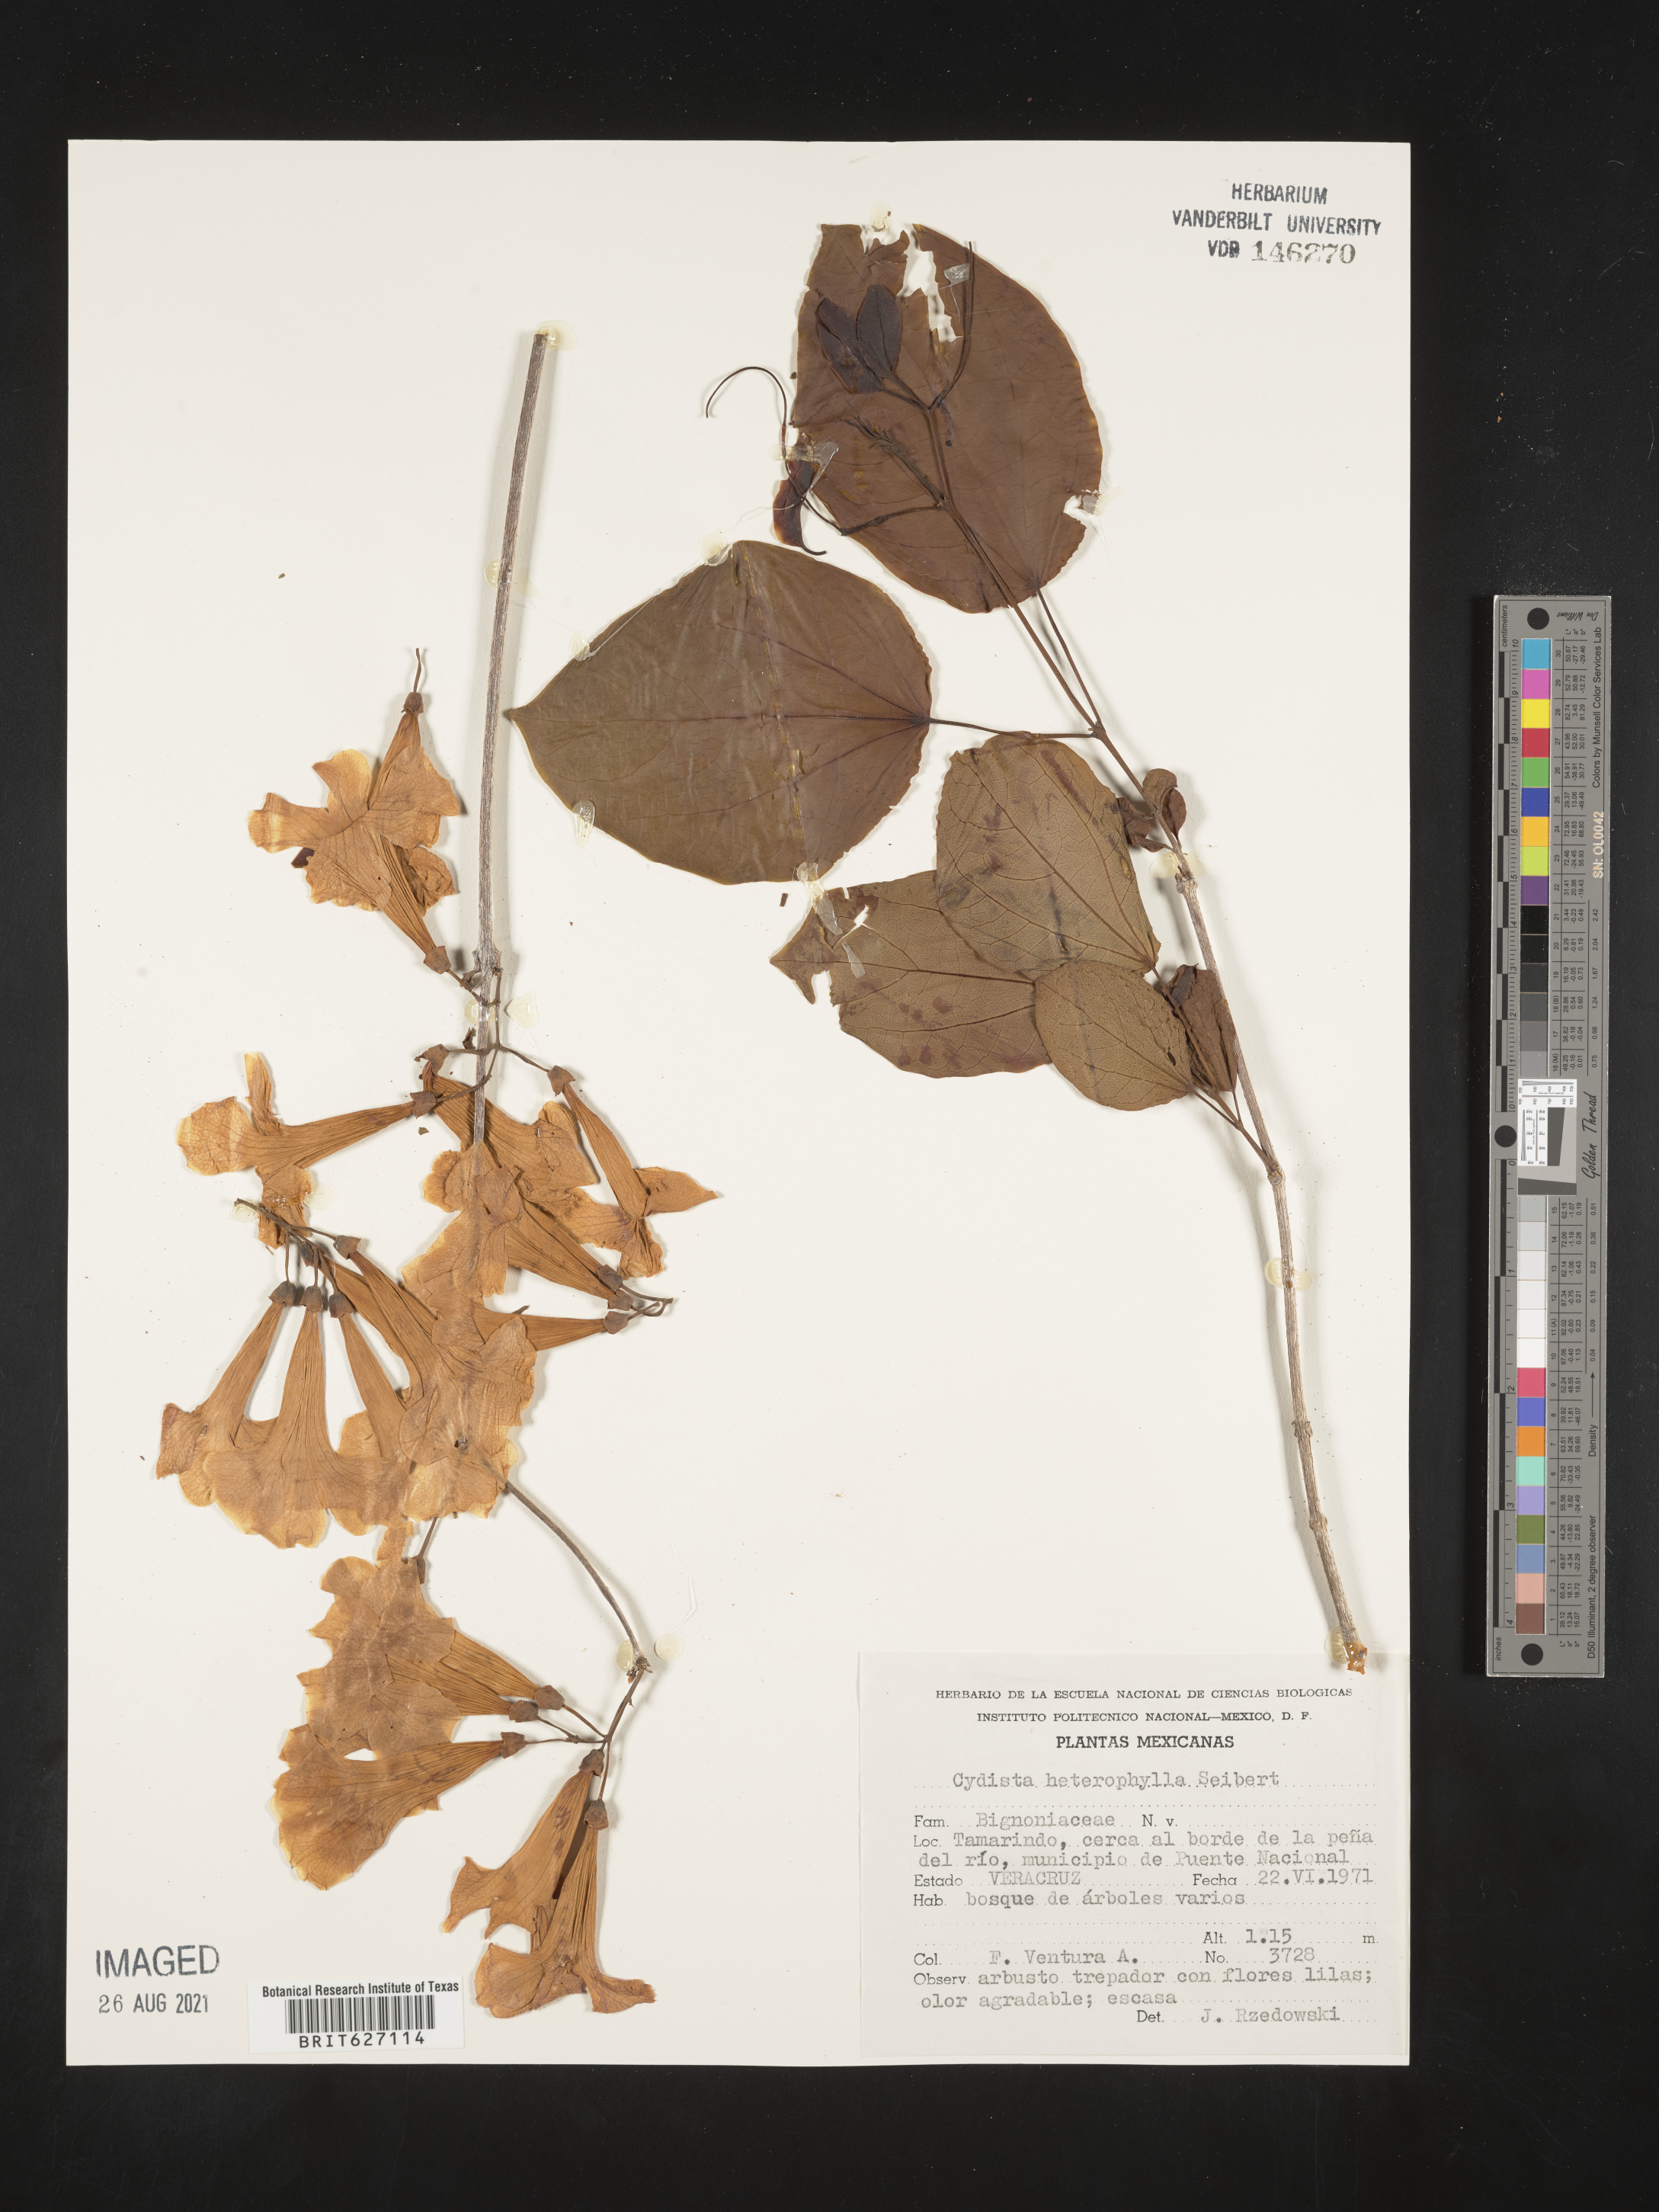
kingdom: Plantae
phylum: Tracheophyta
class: Magnoliopsida
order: Lamiales
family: Bignoniaceae
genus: Bignonia
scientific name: Bignonia
